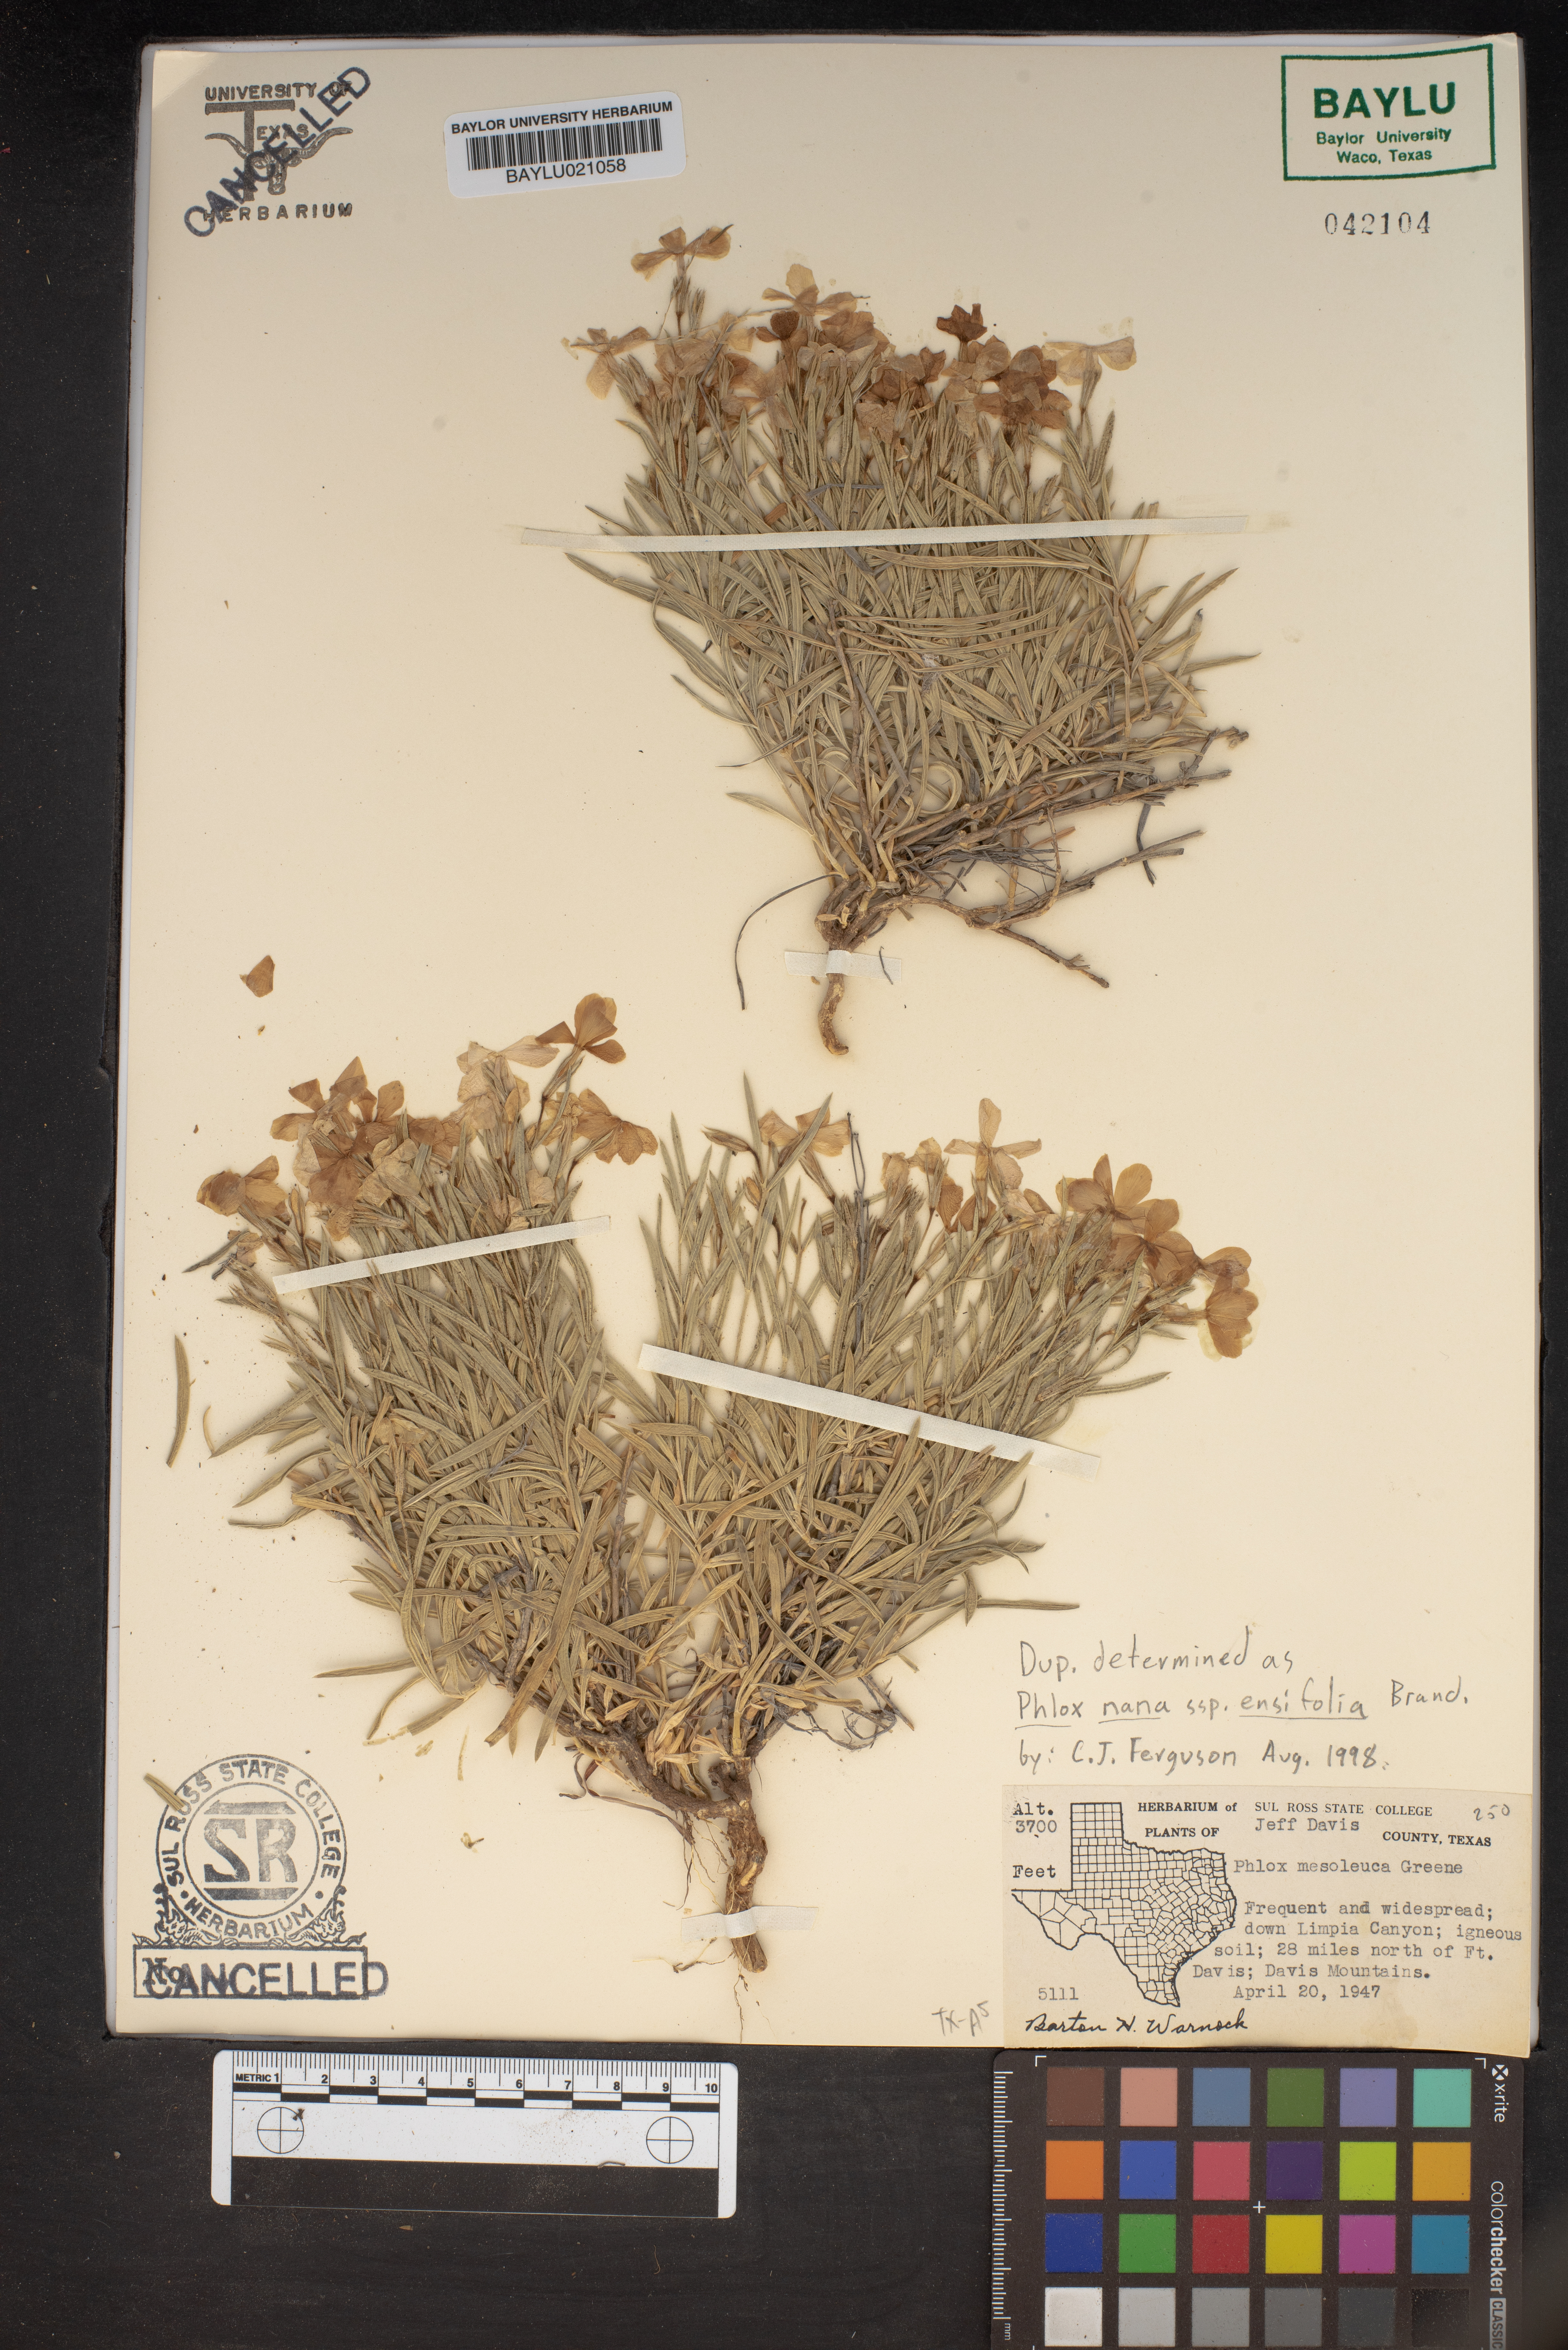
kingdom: Plantae
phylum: Tracheophyta
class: Magnoliopsida
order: Ericales
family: Polemoniaceae
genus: Phlox
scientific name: Phlox mesoleuca
